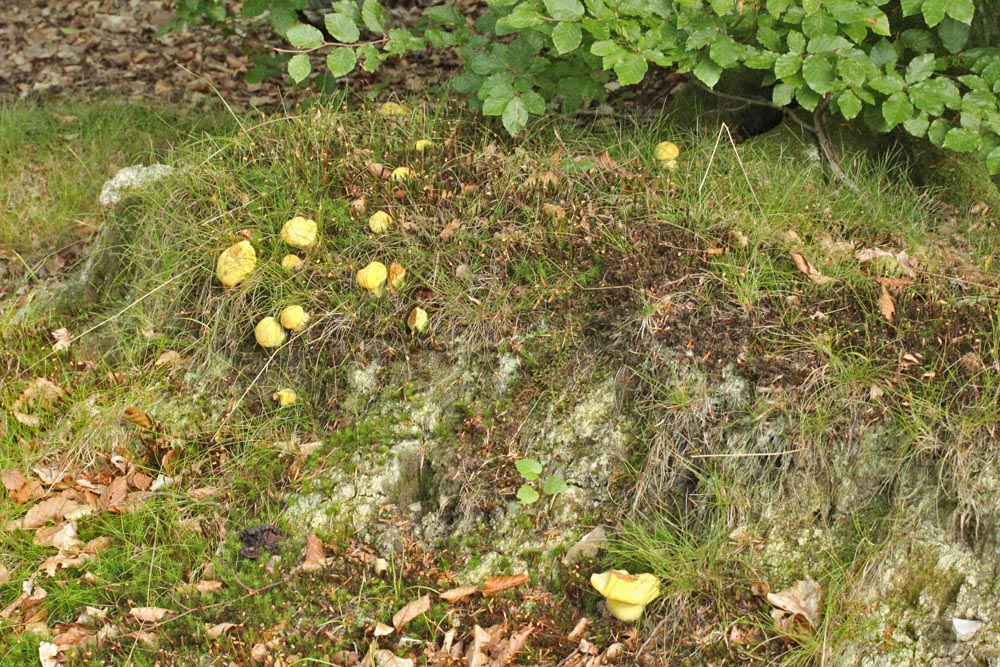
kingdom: Fungi
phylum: Basidiomycota
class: Agaricomycetes
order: Boletales
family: Boletaceae
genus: Neoboletus
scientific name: Neoboletus praestigiator
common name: gul indigorørhat
